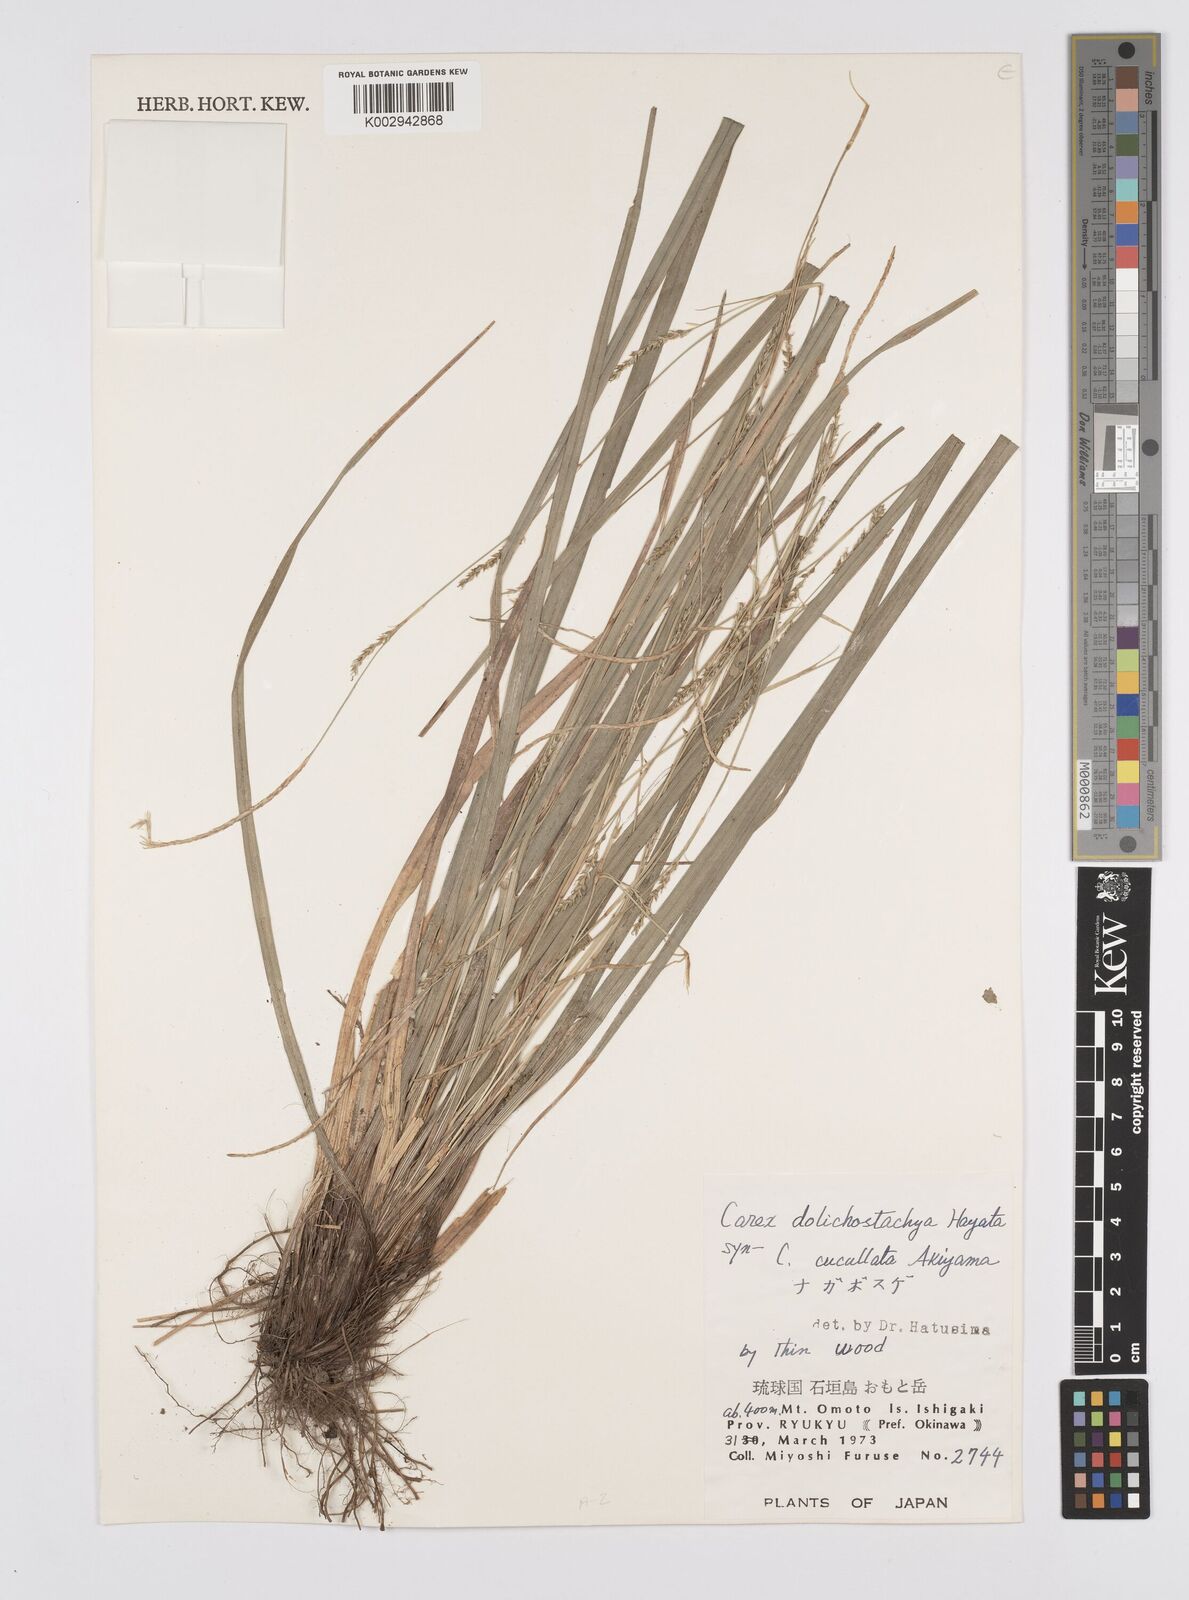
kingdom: Plantae
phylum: Tracheophyta
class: Liliopsida
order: Poales
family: Cyperaceae
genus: Carex
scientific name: Carex dolichostachya
